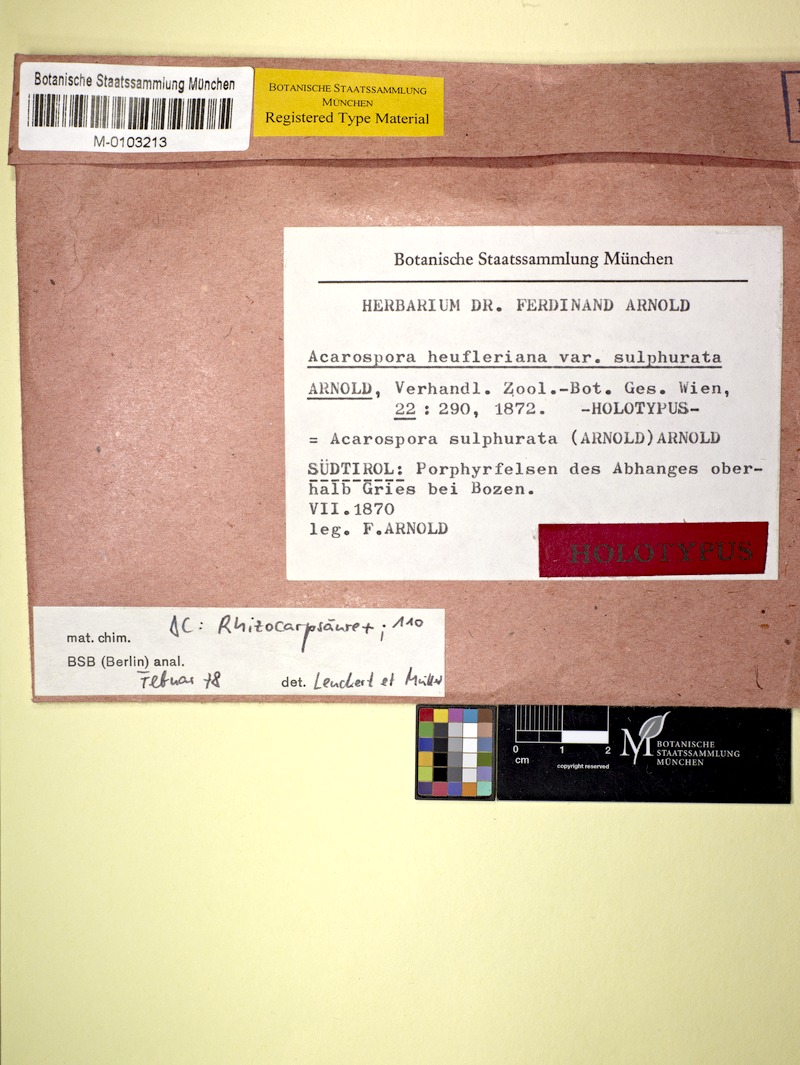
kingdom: Fungi
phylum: Ascomycota
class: Lecanoromycetes
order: Acarosporales
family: Acarosporaceae
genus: Acarospora
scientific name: Acarospora sulphurata
